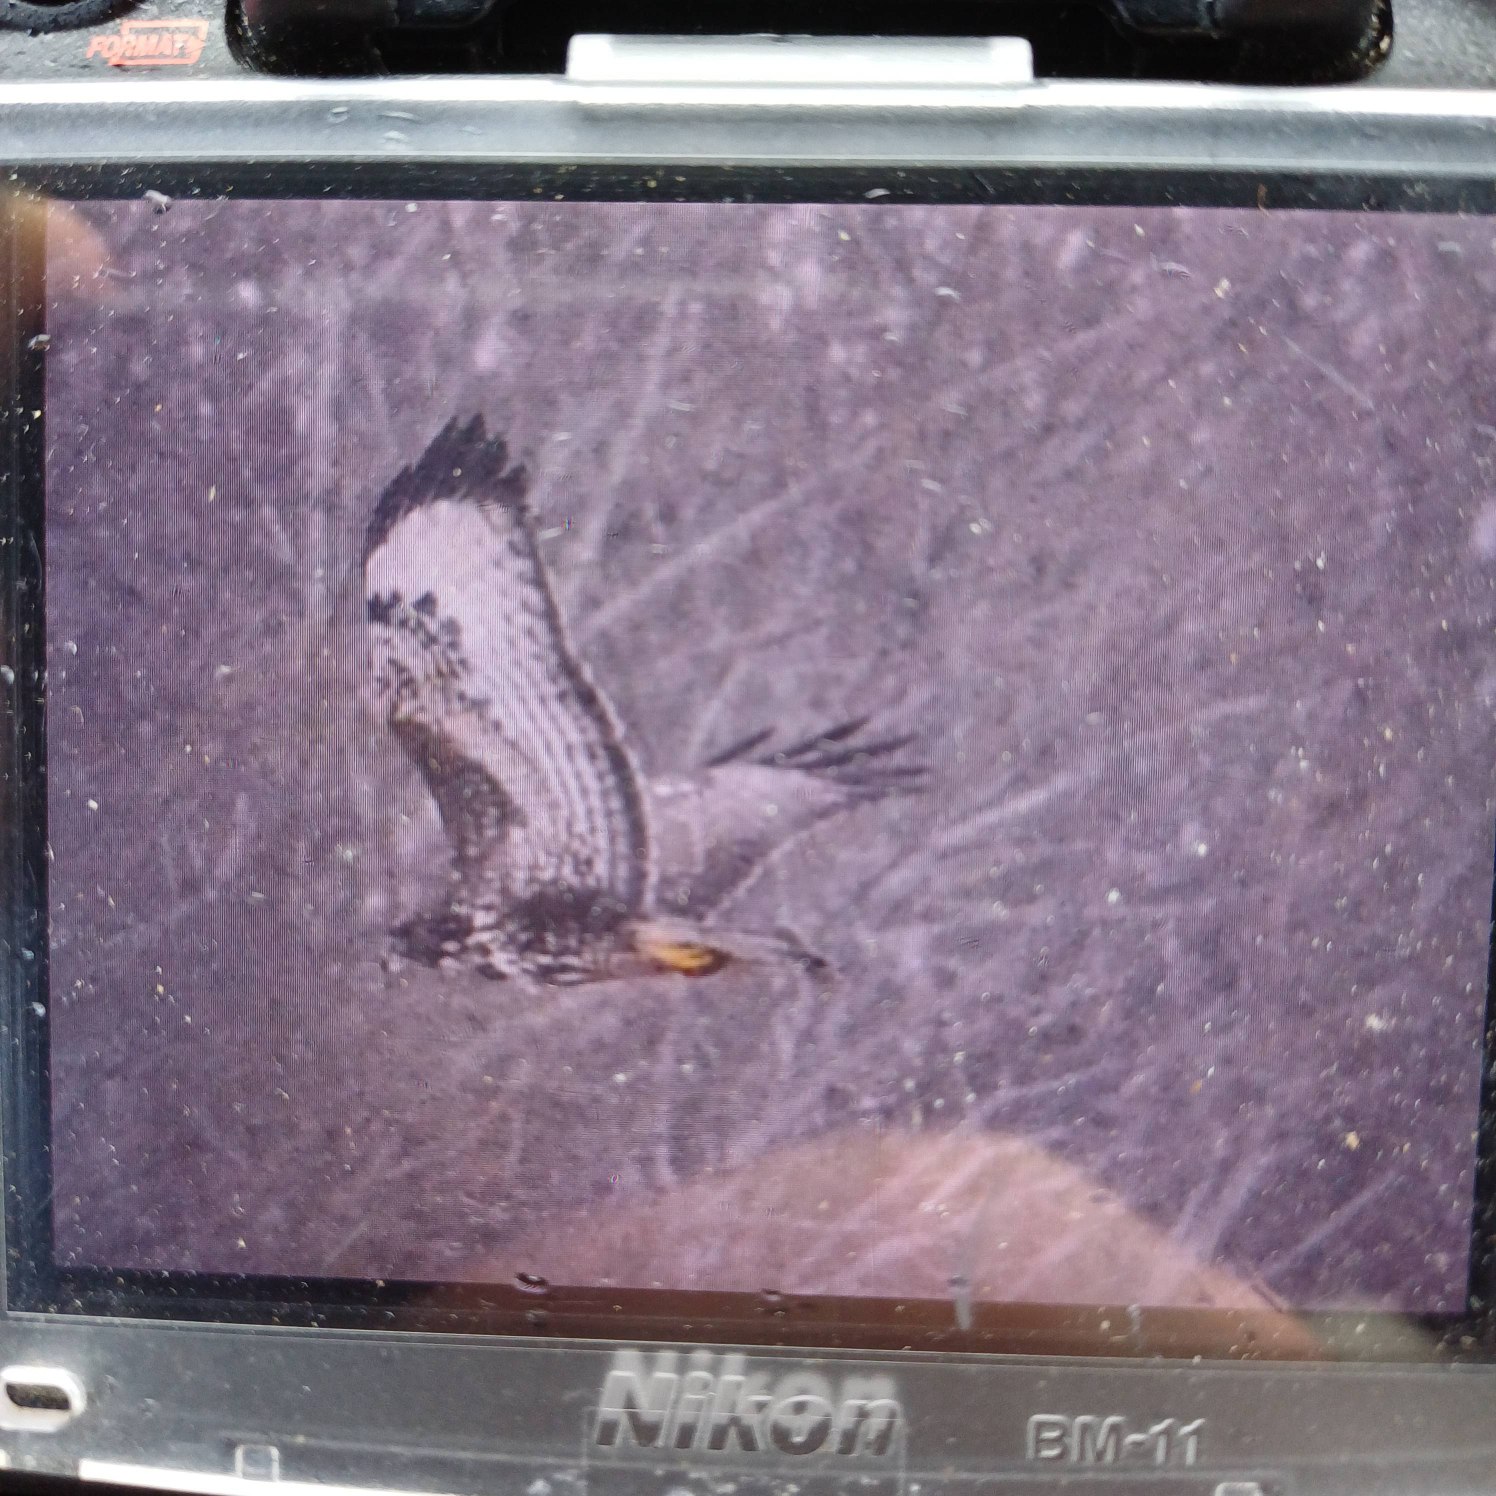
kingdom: Animalia
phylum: Chordata
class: Aves
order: Accipitriformes
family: Accipitridae
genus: Buteo
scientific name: Buteo buteo
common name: Musvåge
